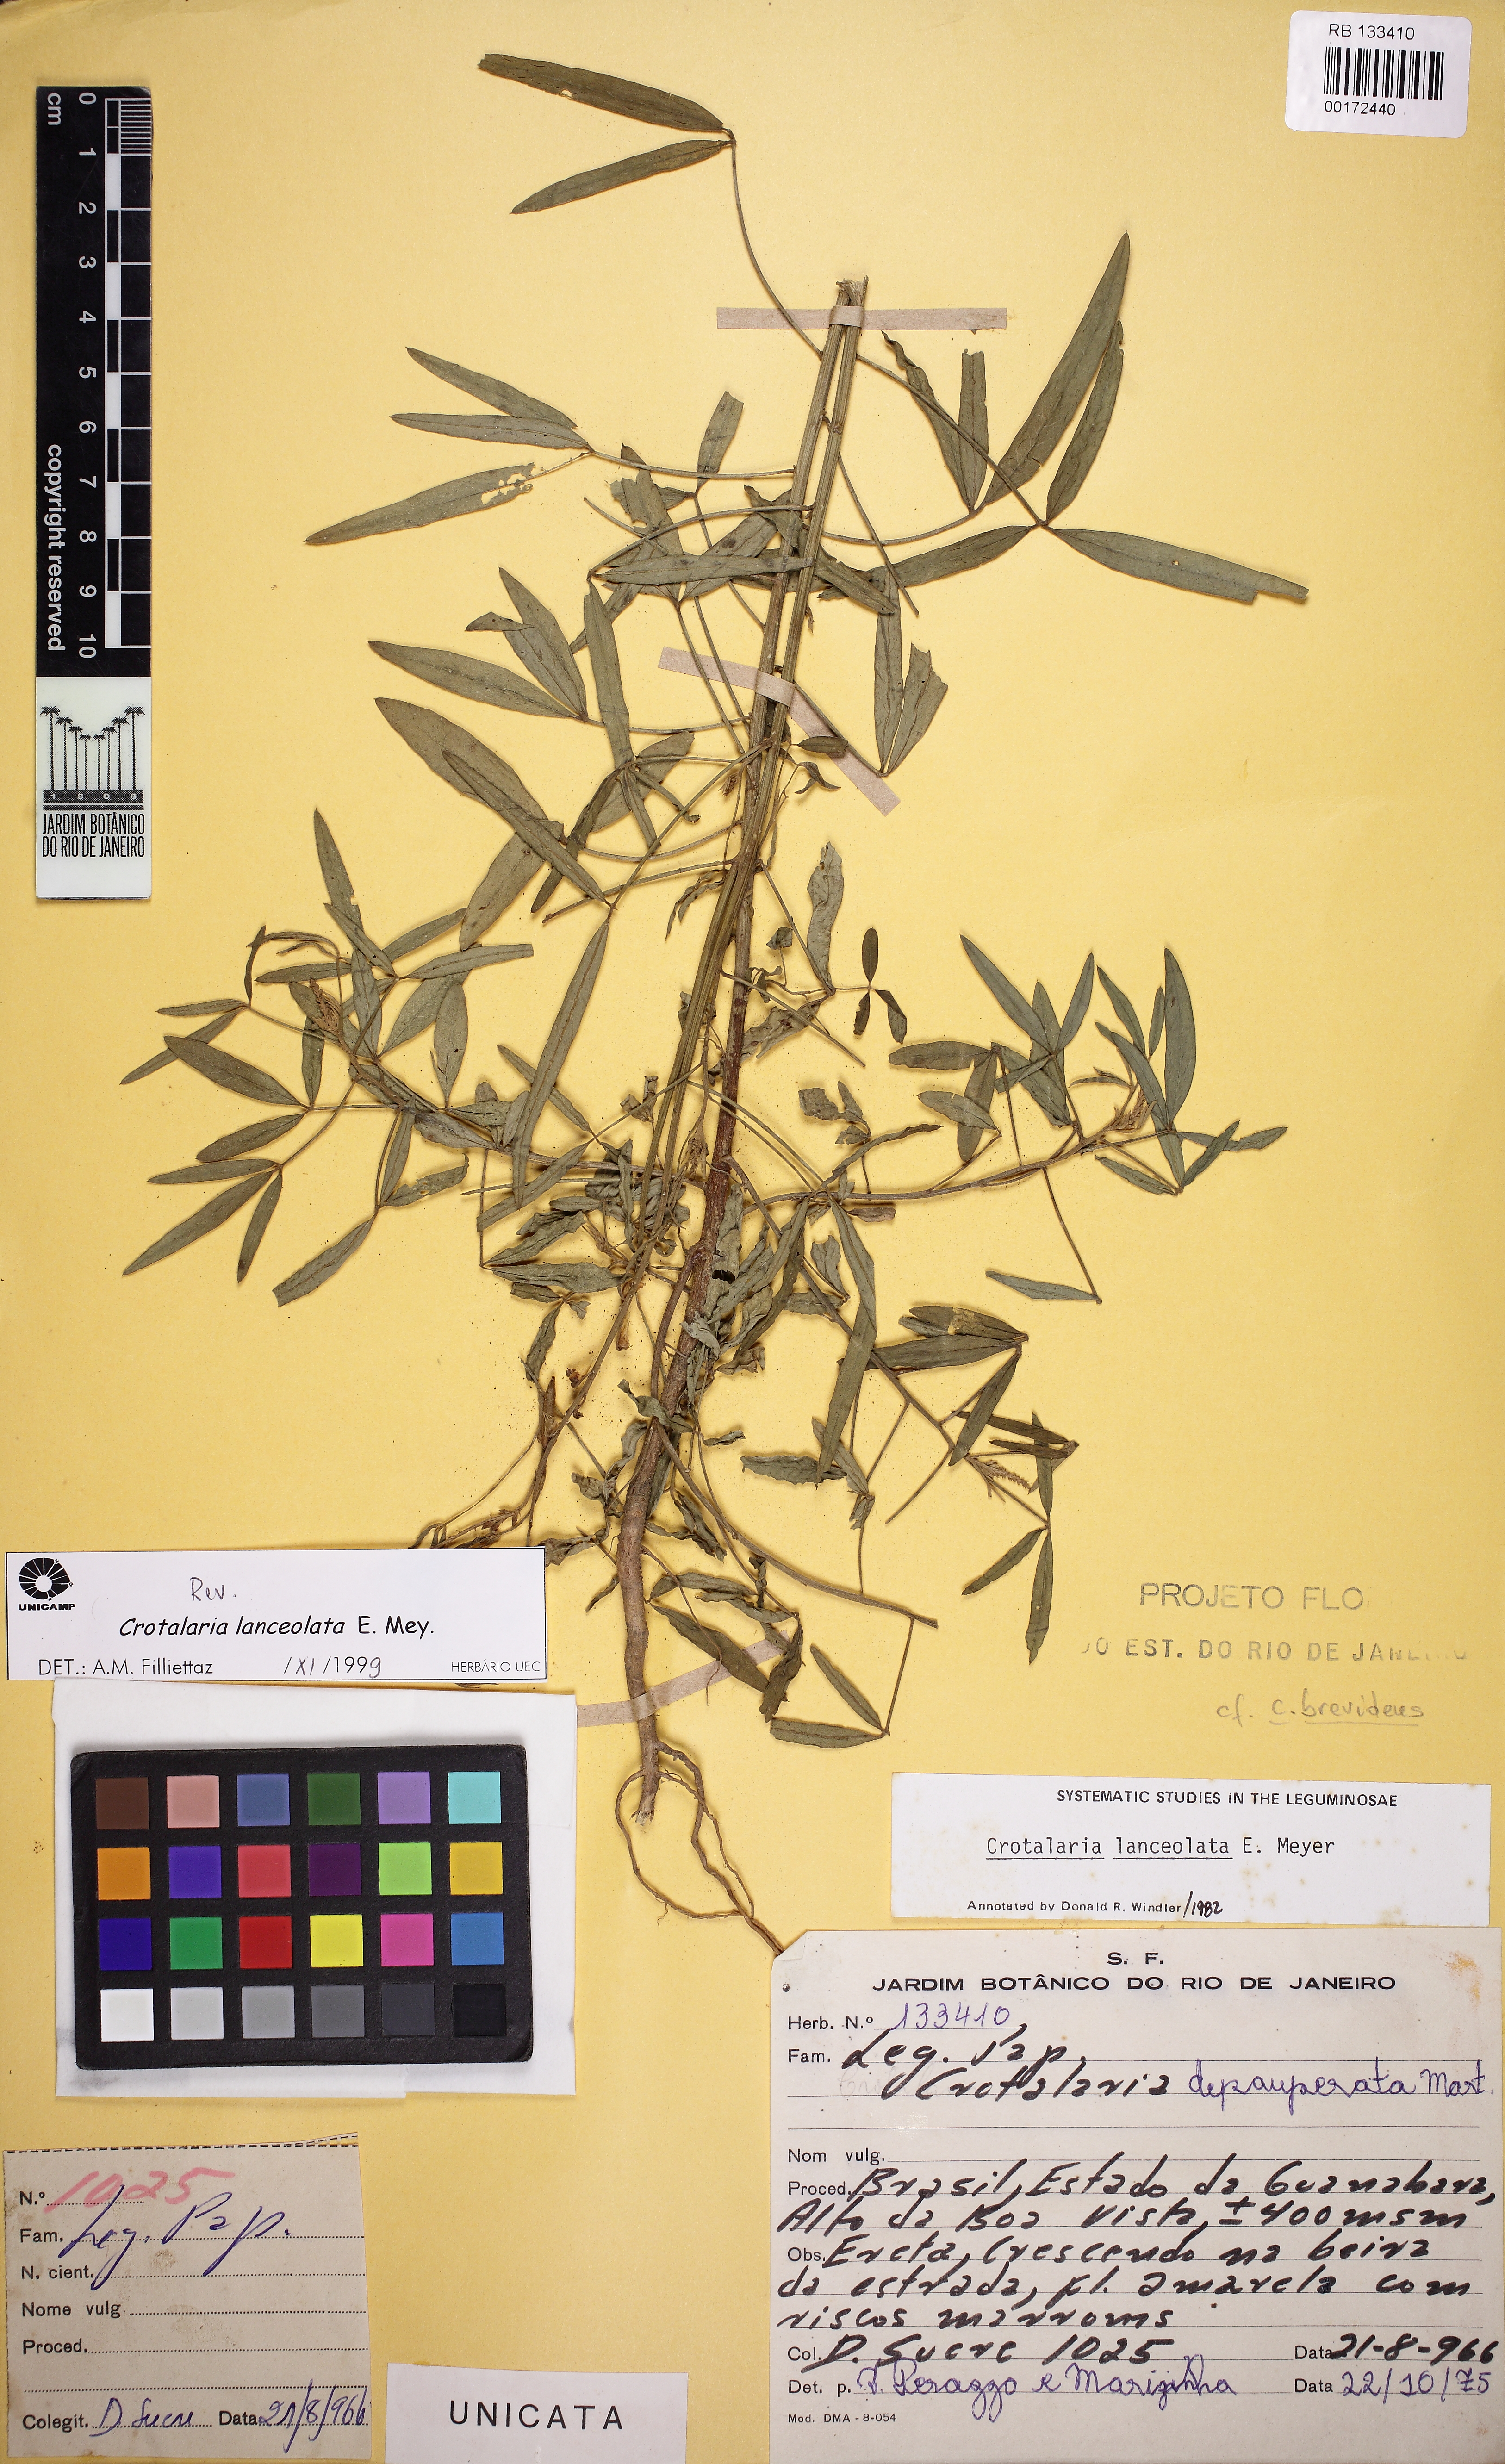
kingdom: Plantae
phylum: Tracheophyta
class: Magnoliopsida
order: Fabales
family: Fabaceae
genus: Crotalaria
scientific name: Crotalaria lanceolata
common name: Lanceleaf rattlebox
